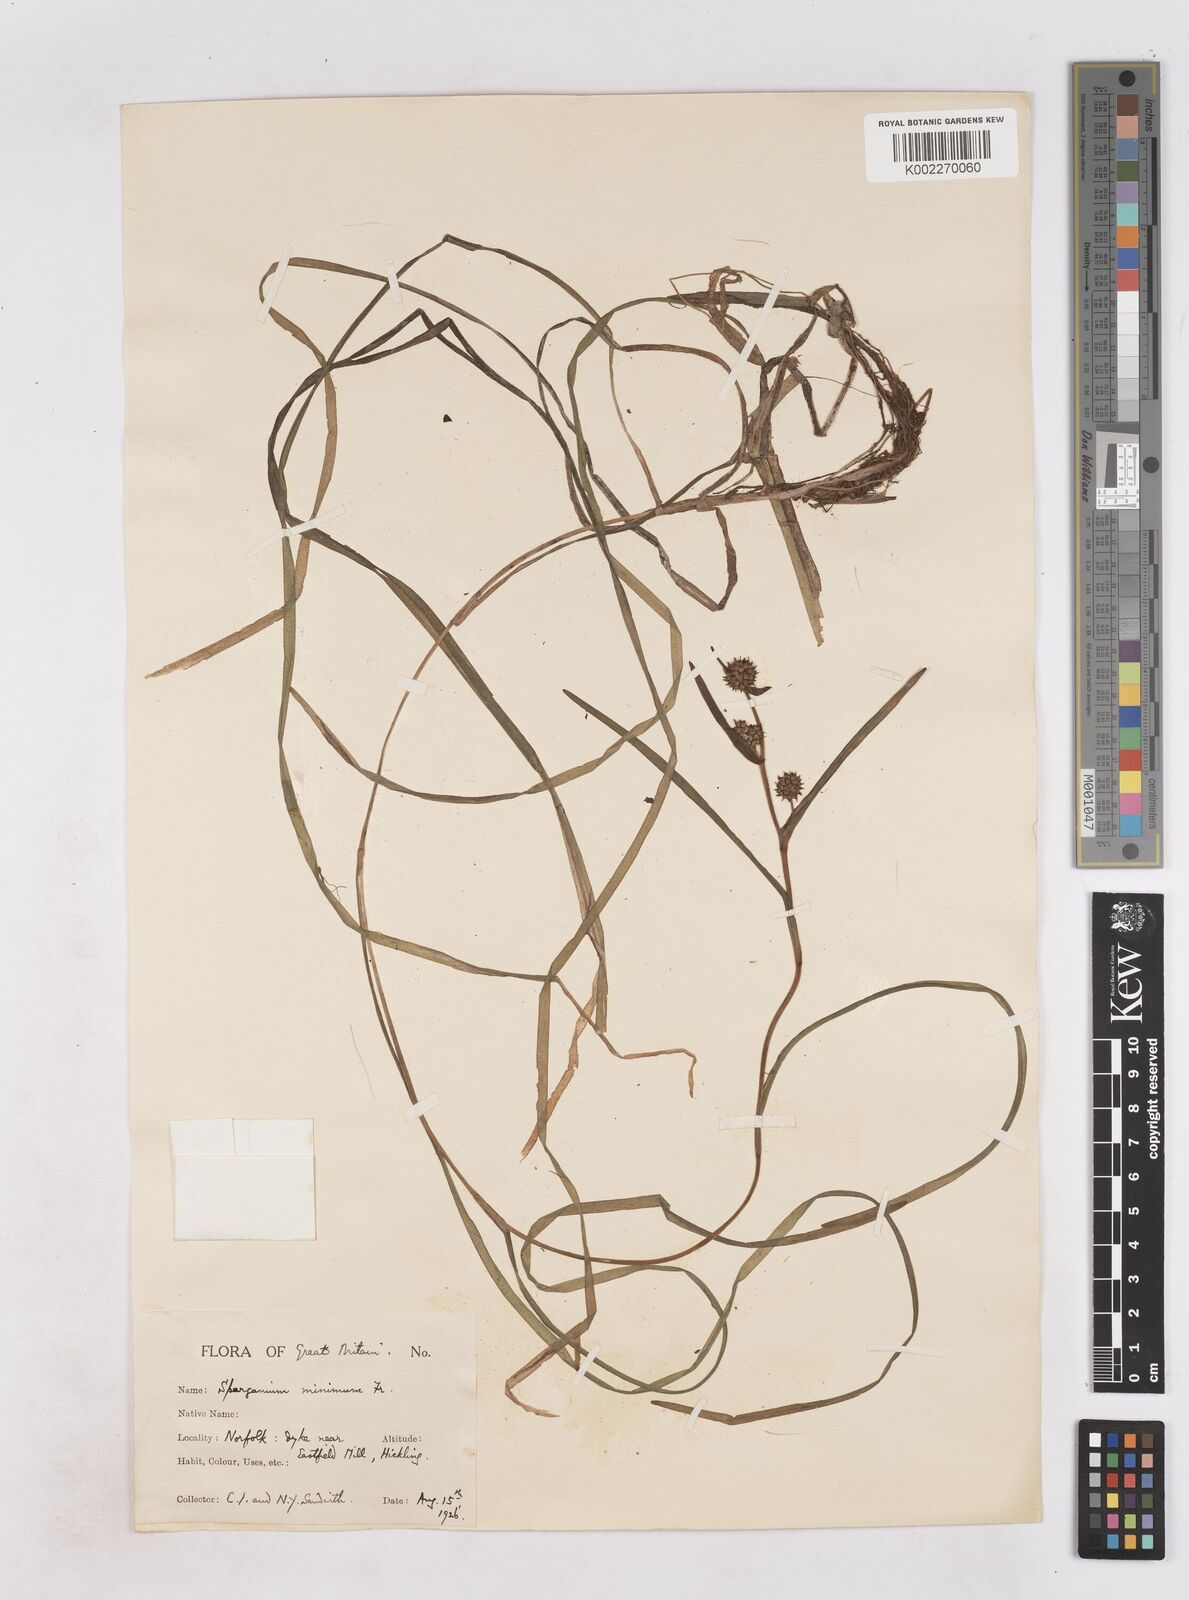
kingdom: Plantae
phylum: Tracheophyta
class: Liliopsida
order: Poales
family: Typhaceae
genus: Sparganium
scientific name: Sparganium natans
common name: Least bur-reed
